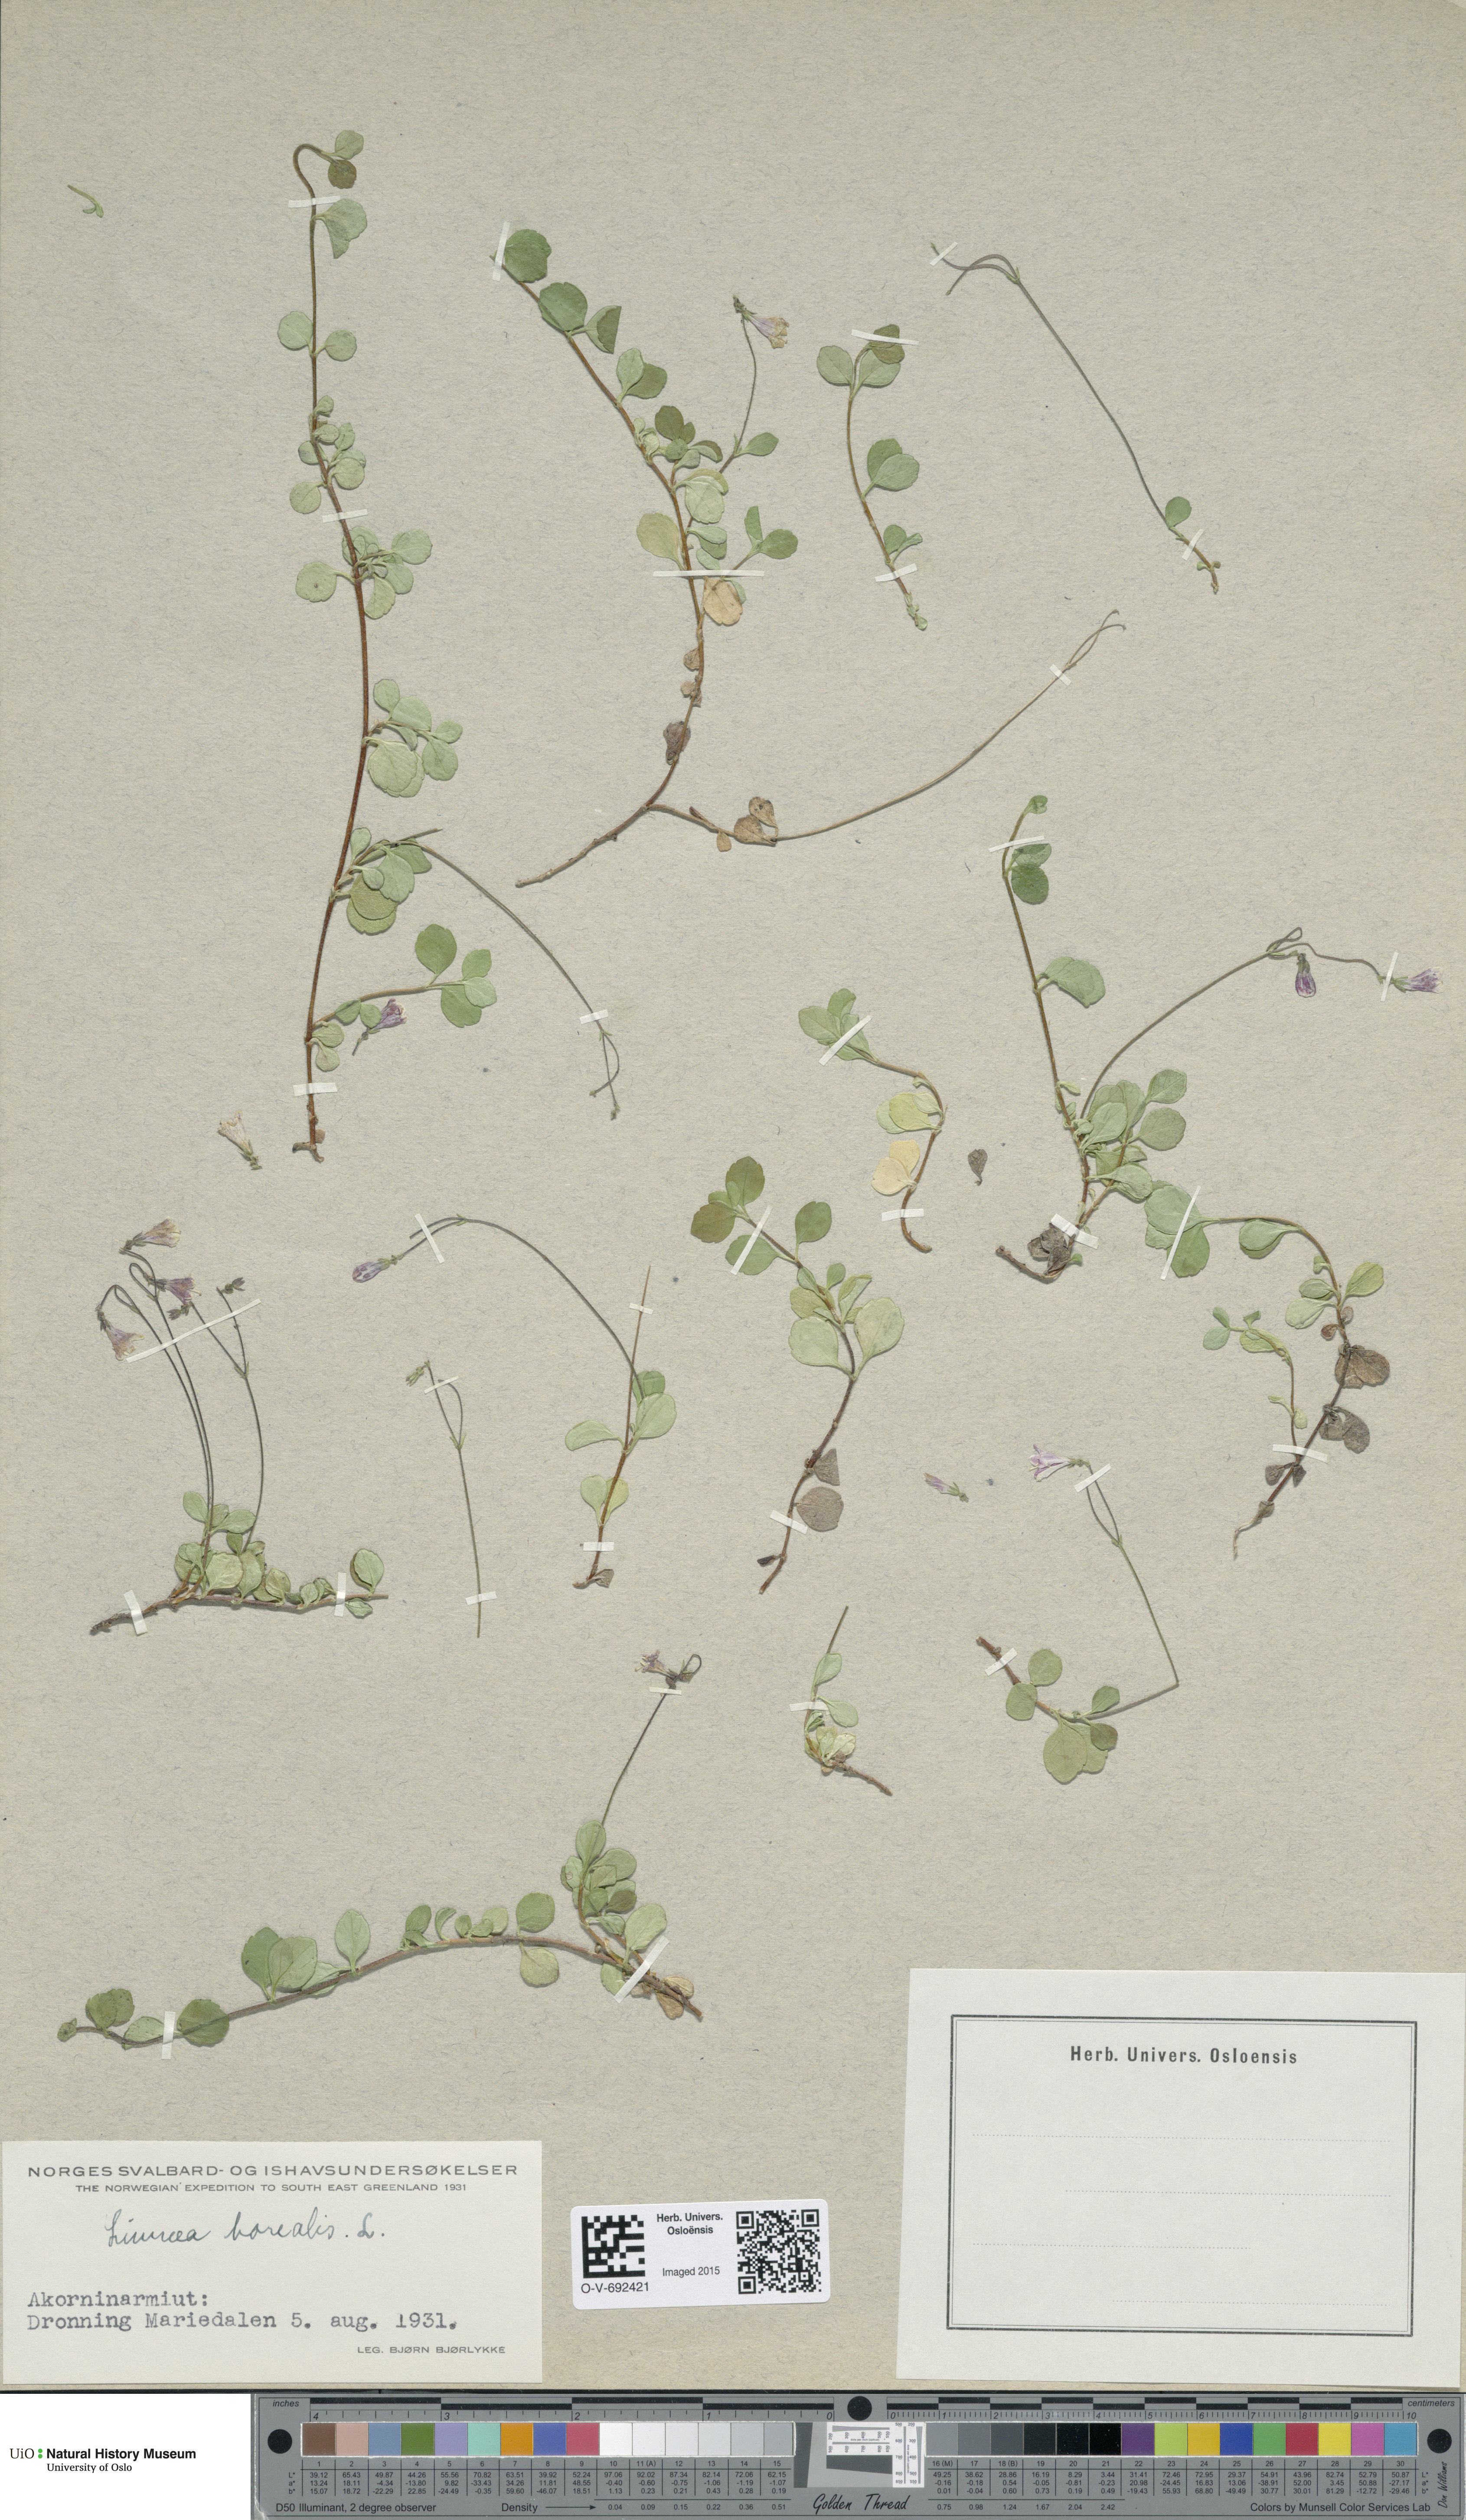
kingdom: Plantae
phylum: Tracheophyta
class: Magnoliopsida
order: Dipsacales
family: Caprifoliaceae
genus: Linnaea
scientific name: Linnaea borealis
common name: Twinflower
